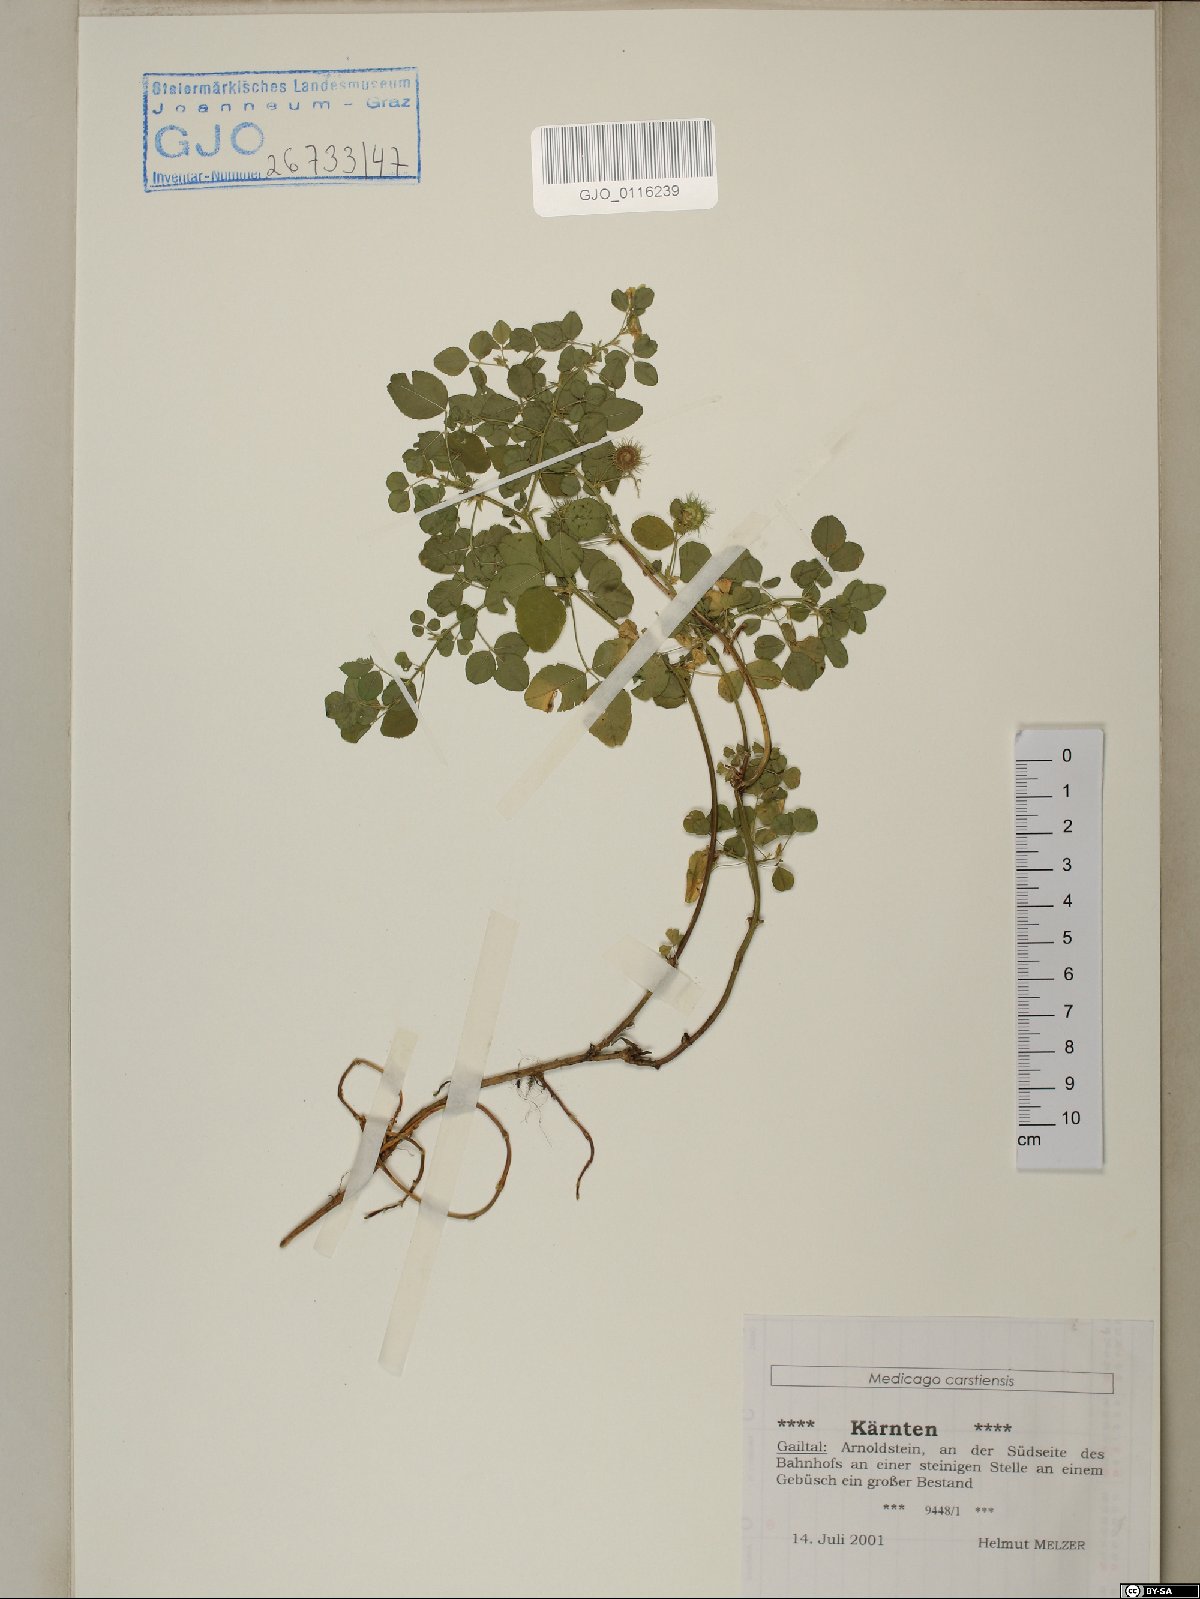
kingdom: Plantae
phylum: Tracheophyta
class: Magnoliopsida
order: Fabales
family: Fabaceae
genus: Medicago
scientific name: Medicago carstiensis
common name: Creeping-rooted medic
